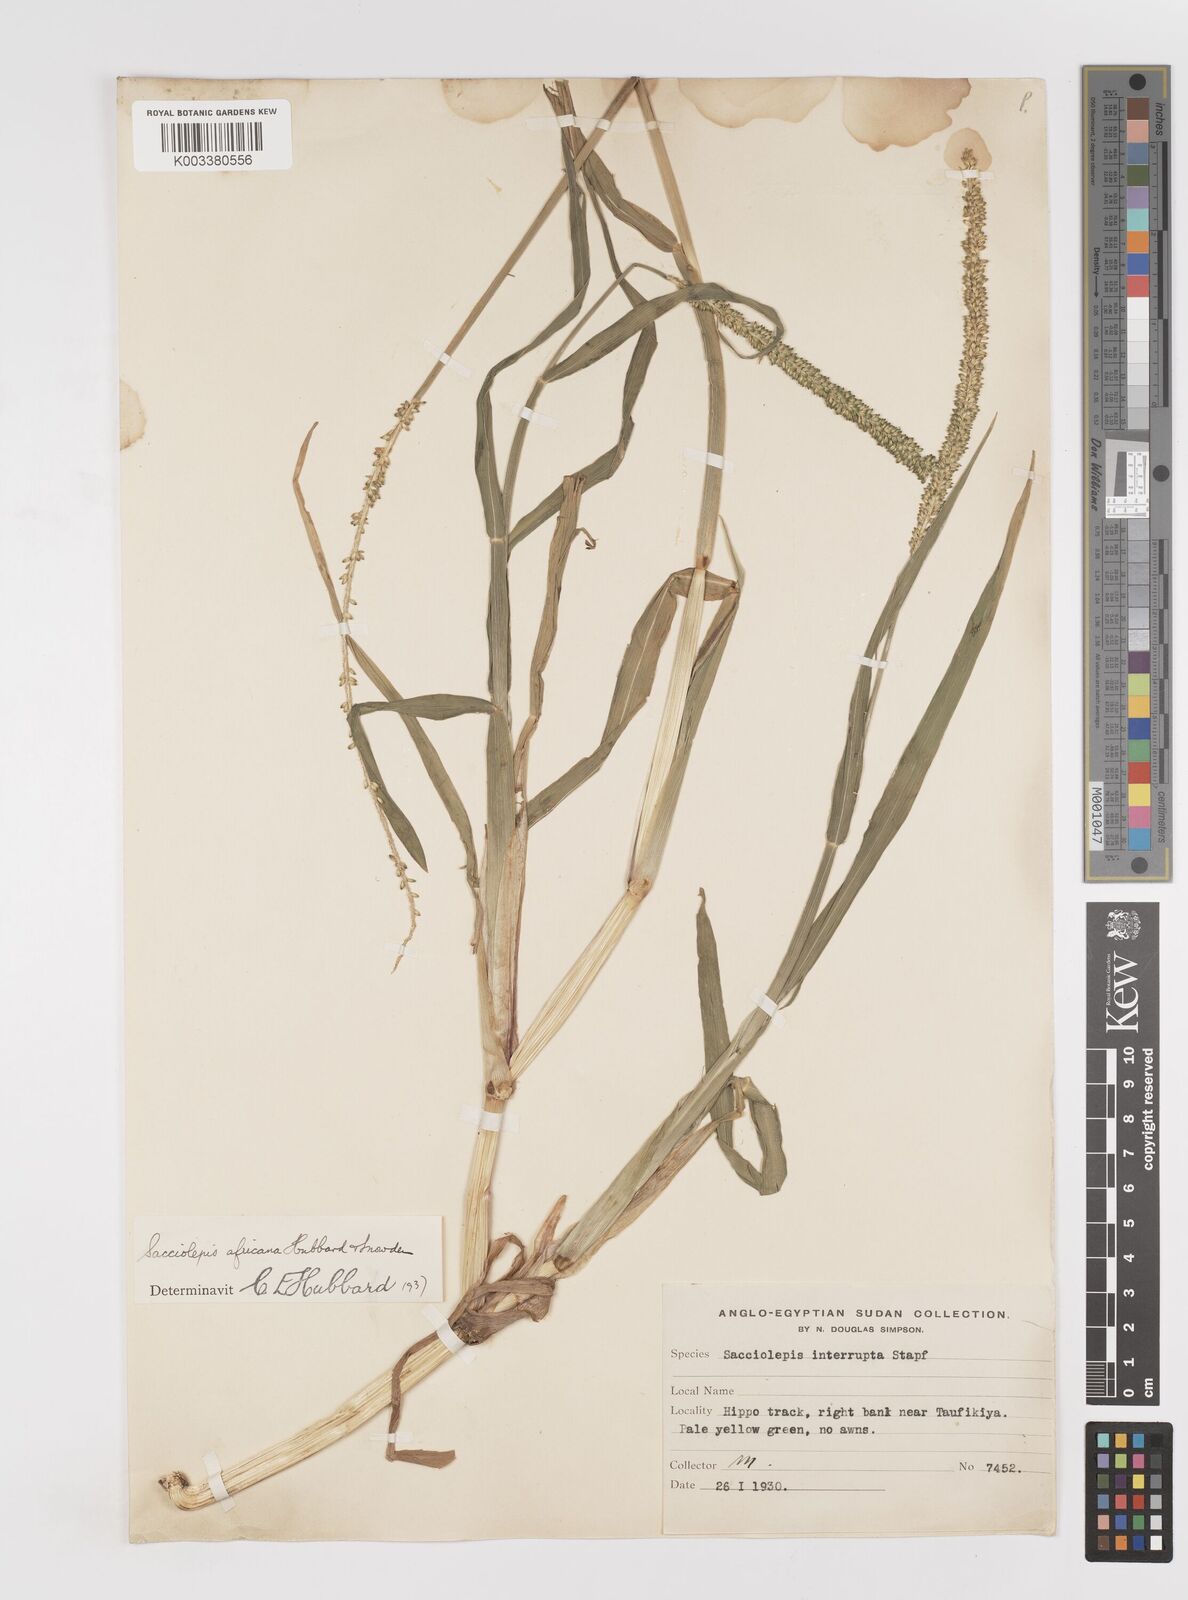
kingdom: Plantae
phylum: Tracheophyta
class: Liliopsida
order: Poales
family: Poaceae
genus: Sacciolepis
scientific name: Sacciolepis africana
